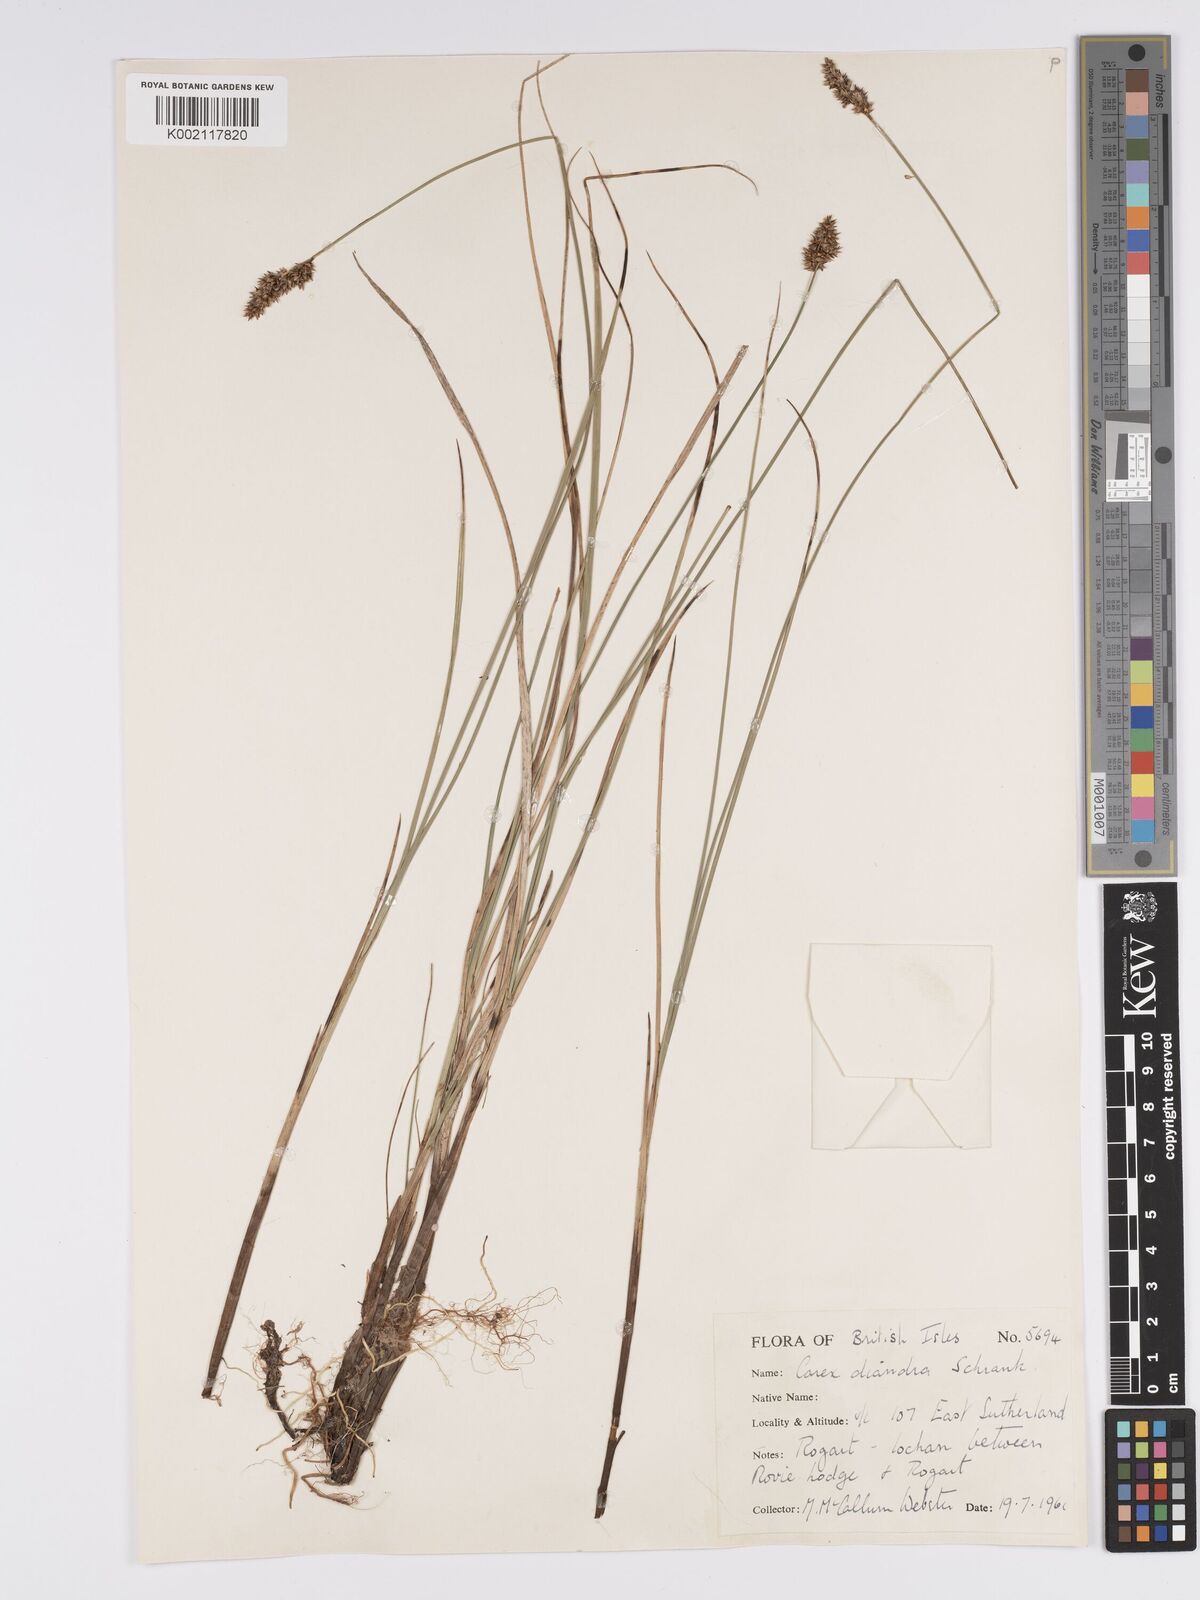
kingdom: Plantae
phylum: Tracheophyta
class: Liliopsida
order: Poales
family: Cyperaceae
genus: Carex
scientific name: Carex diandra
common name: Lesser tussock-sedge
